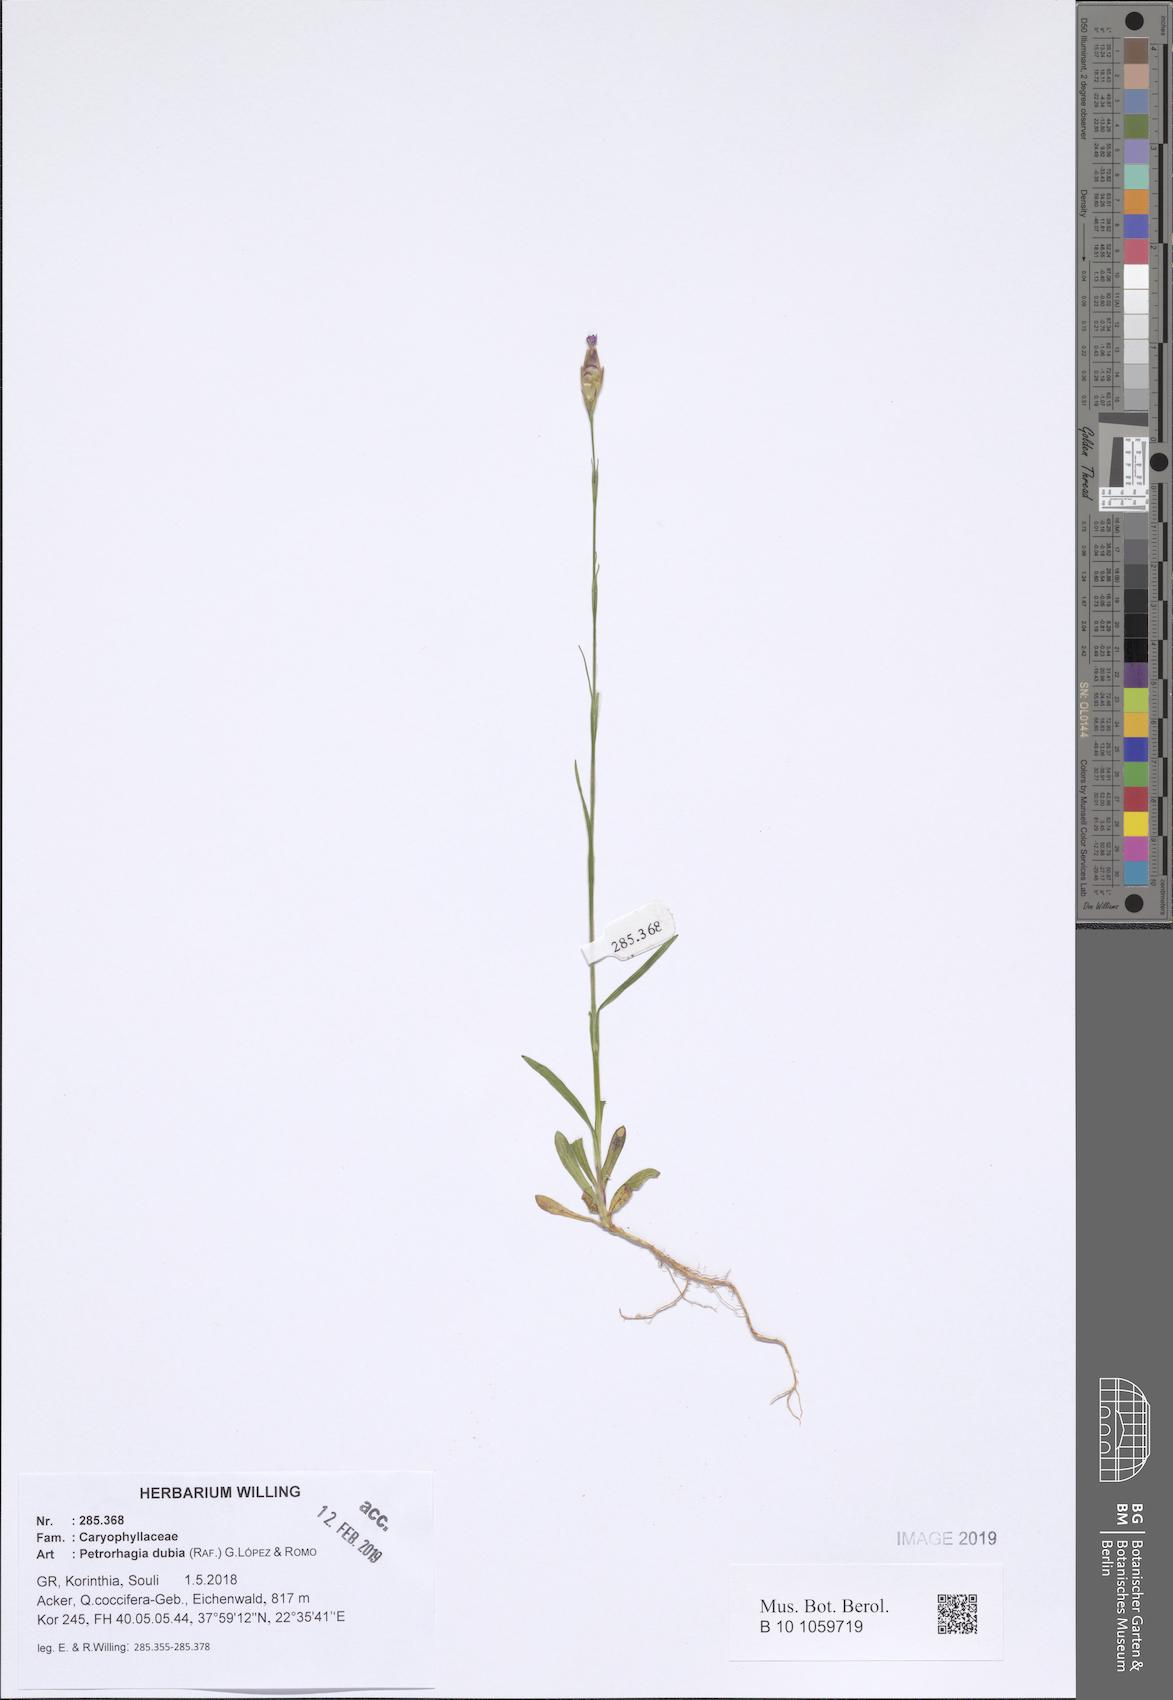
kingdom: Plantae
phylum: Tracheophyta
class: Magnoliopsida
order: Caryophyllales
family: Caryophyllaceae
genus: Petrorhagia
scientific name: Petrorhagia dubia
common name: Hairypink
